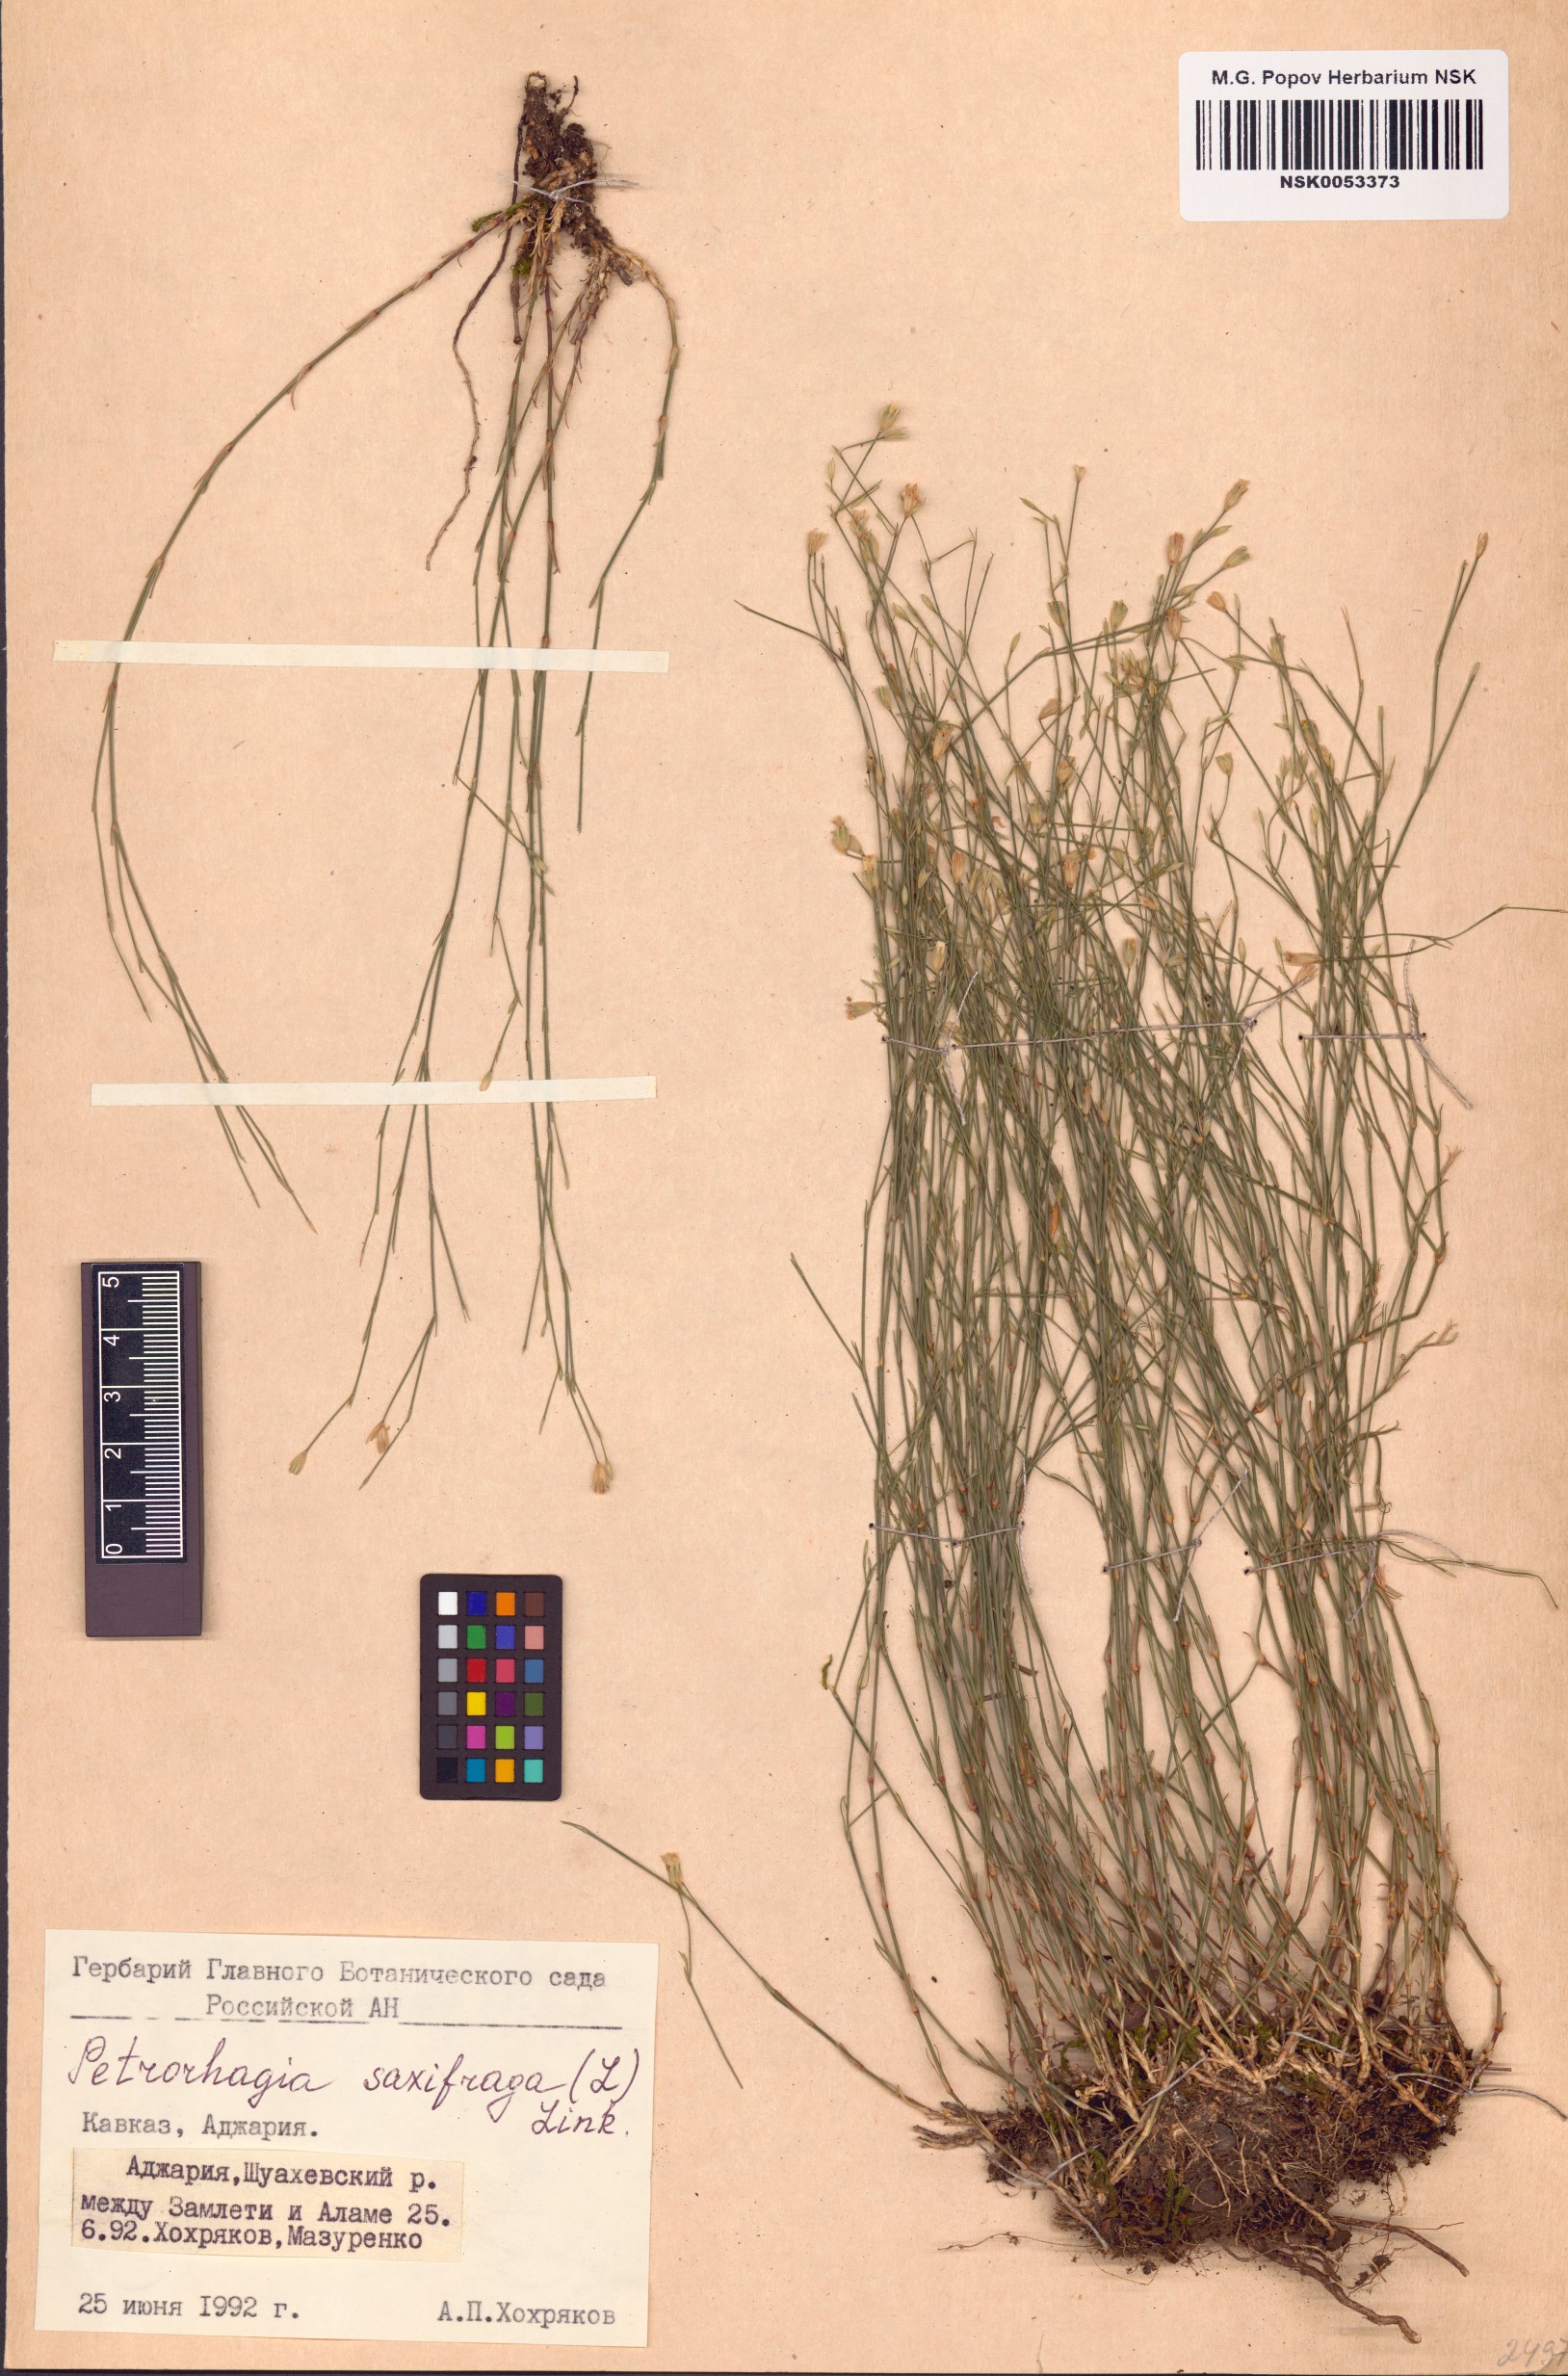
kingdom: Plantae
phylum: Tracheophyta
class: Magnoliopsida
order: Caryophyllales
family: Caryophyllaceae
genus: Petrorhagia
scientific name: Petrorhagia saxifraga
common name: Tunicflower
